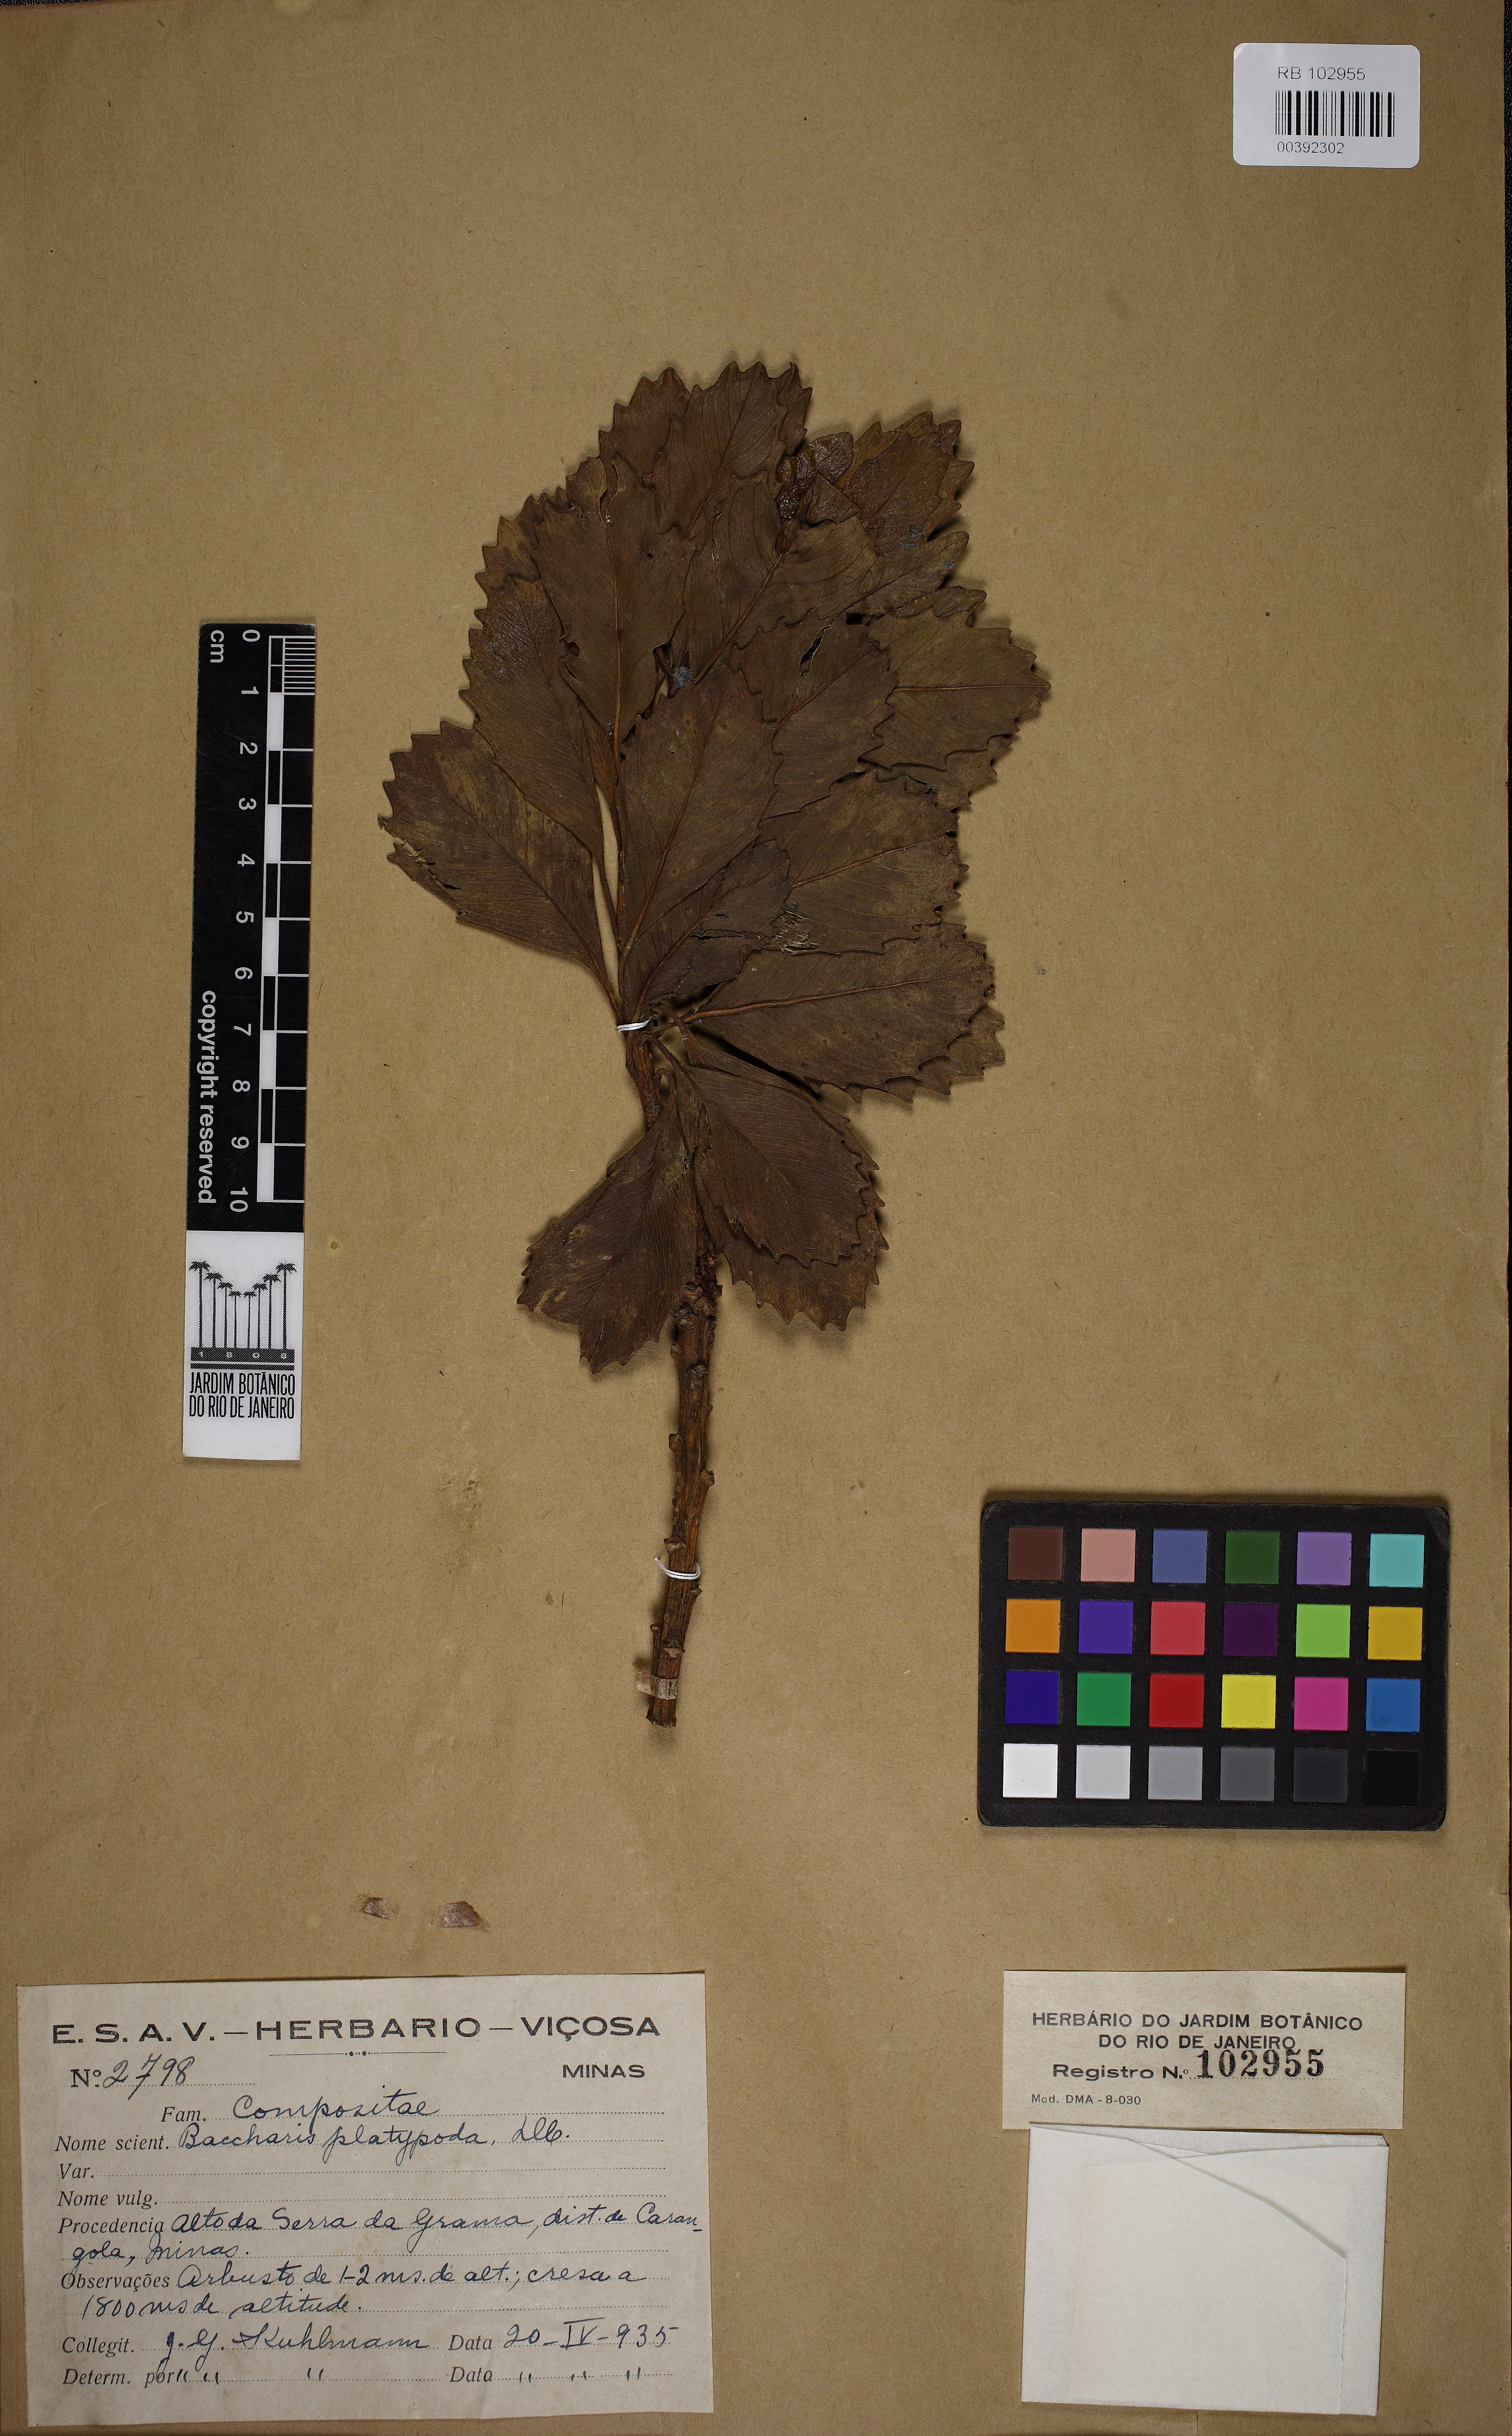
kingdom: Plantae
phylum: Tracheophyta
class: Magnoliopsida
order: Asterales
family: Asteraceae
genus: Baccharis
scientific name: Baccharis platypoda
